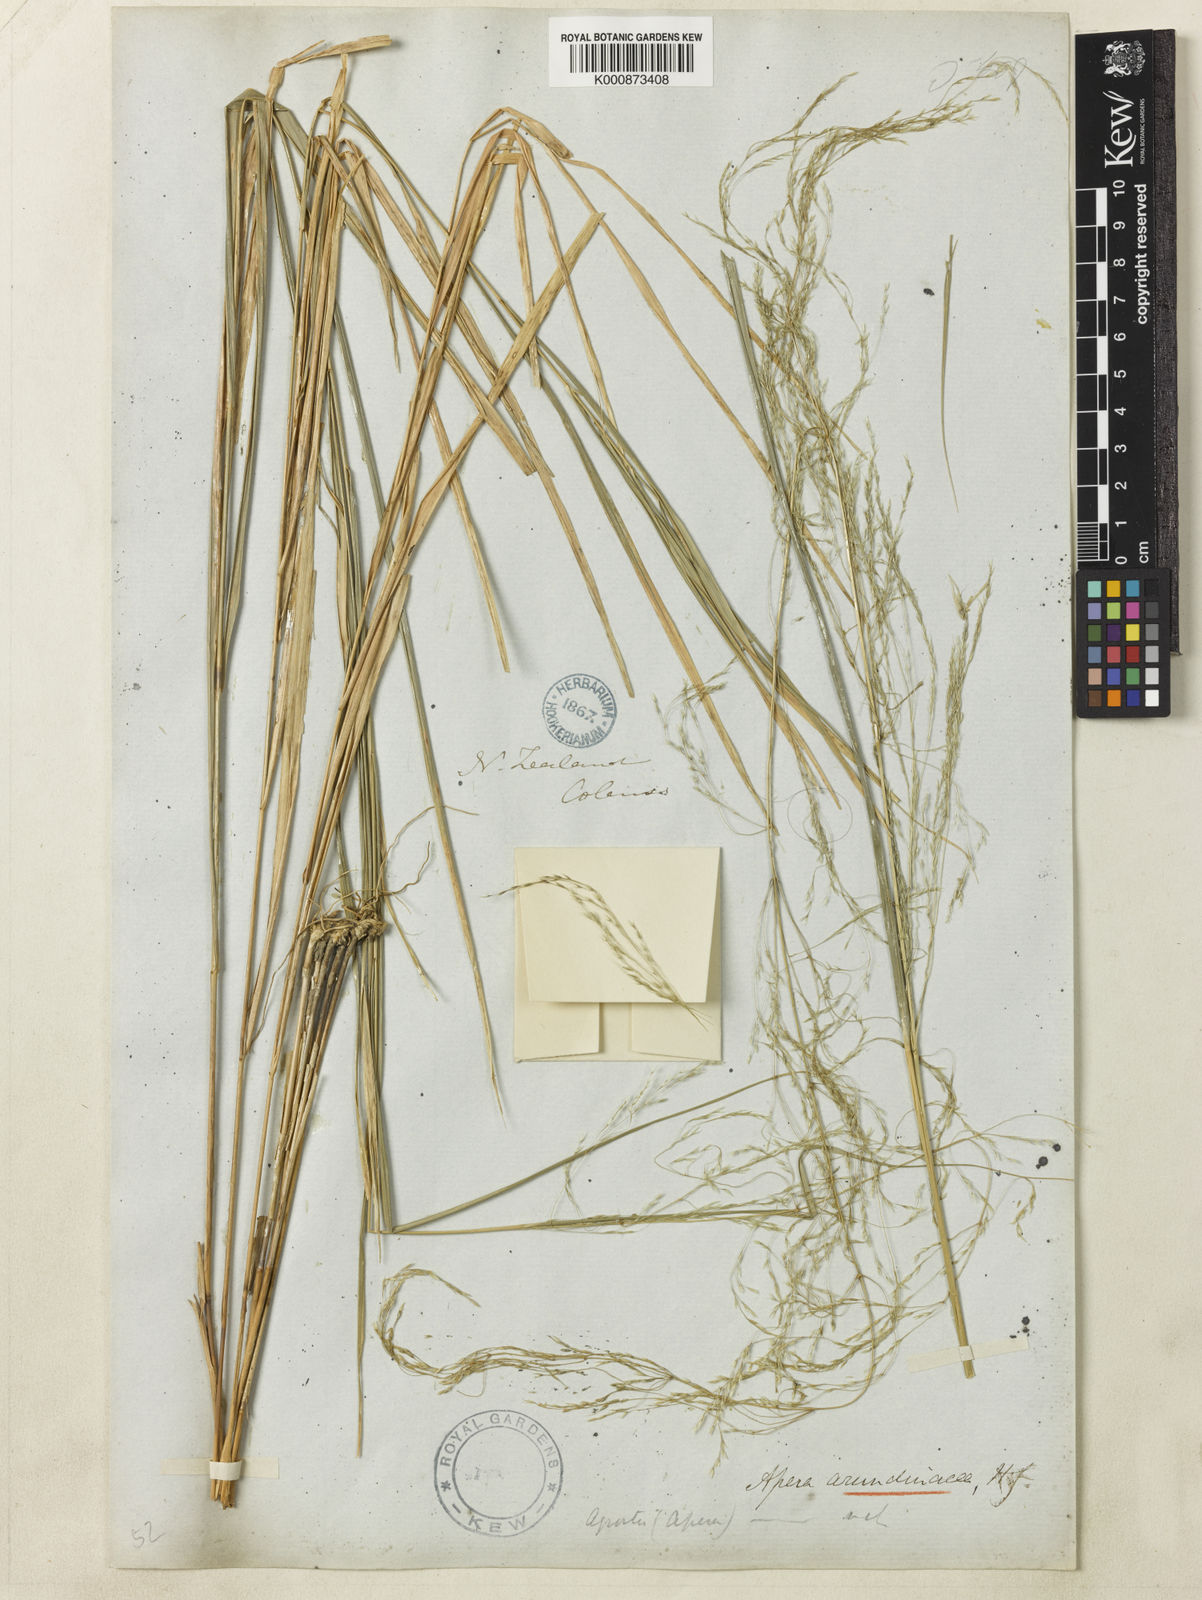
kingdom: Plantae
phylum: Tracheophyta
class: Liliopsida
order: Poales
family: Poaceae
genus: Stipa
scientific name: Stipa
